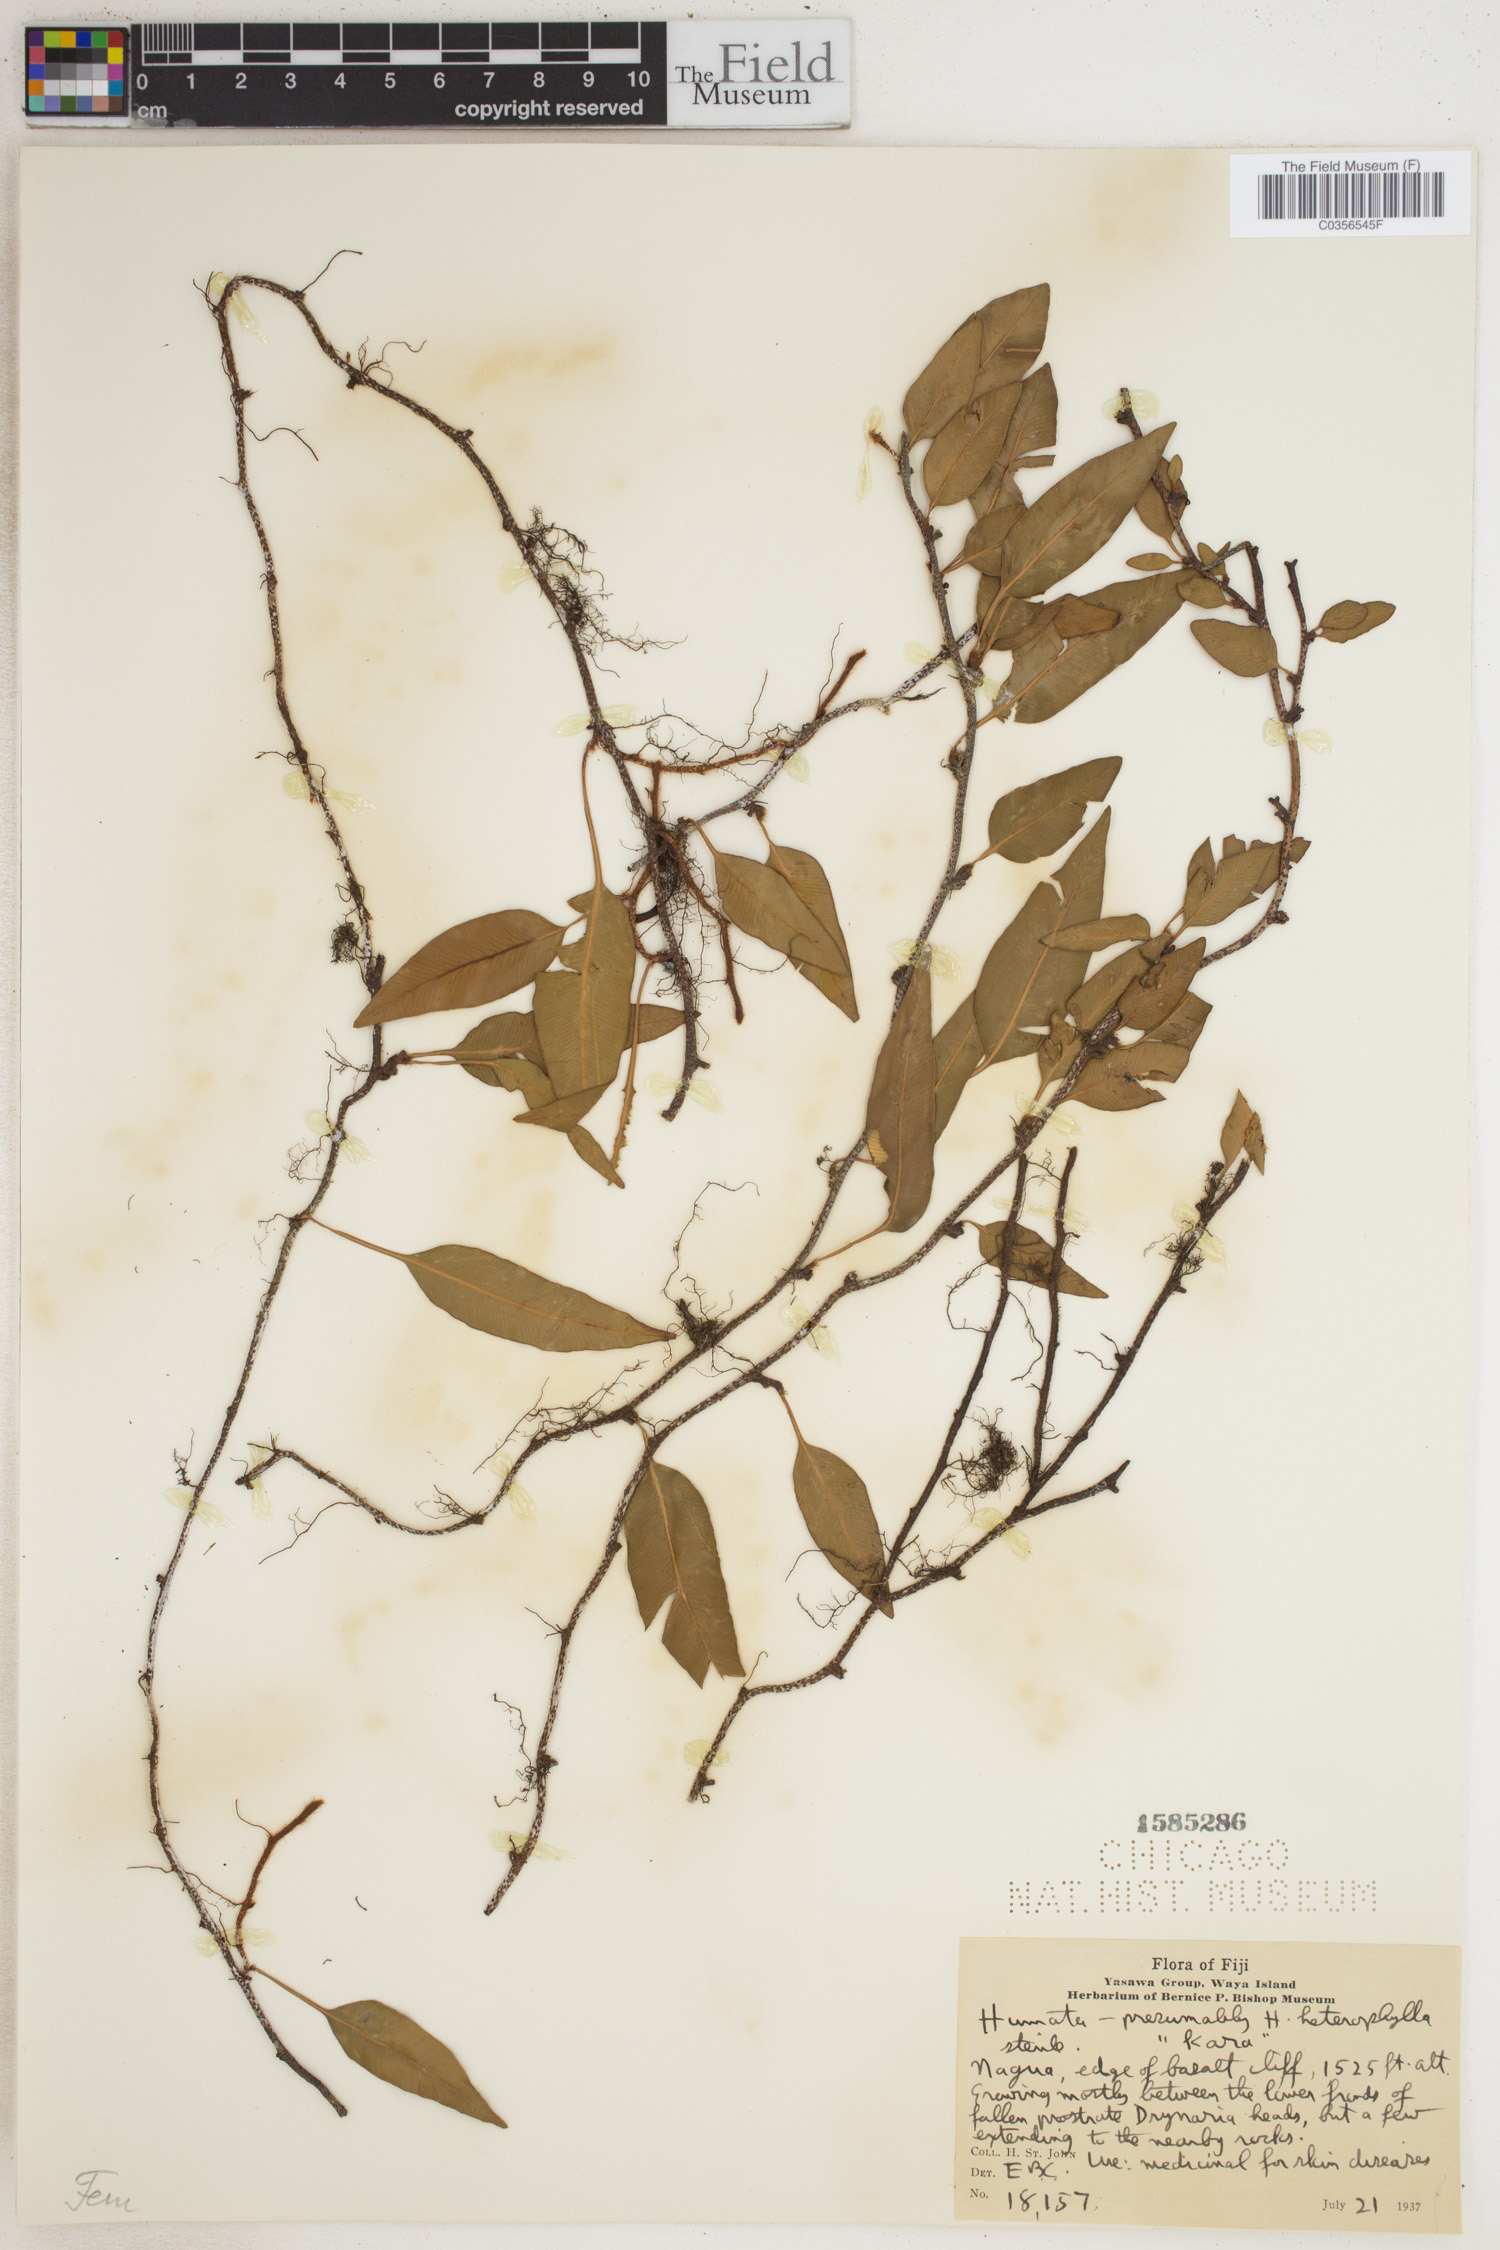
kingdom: Plantae
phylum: Tracheophyta
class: Polypodiopsida
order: Polypodiales
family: Davalliaceae
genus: Davallia
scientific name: Davallia heterophylla
